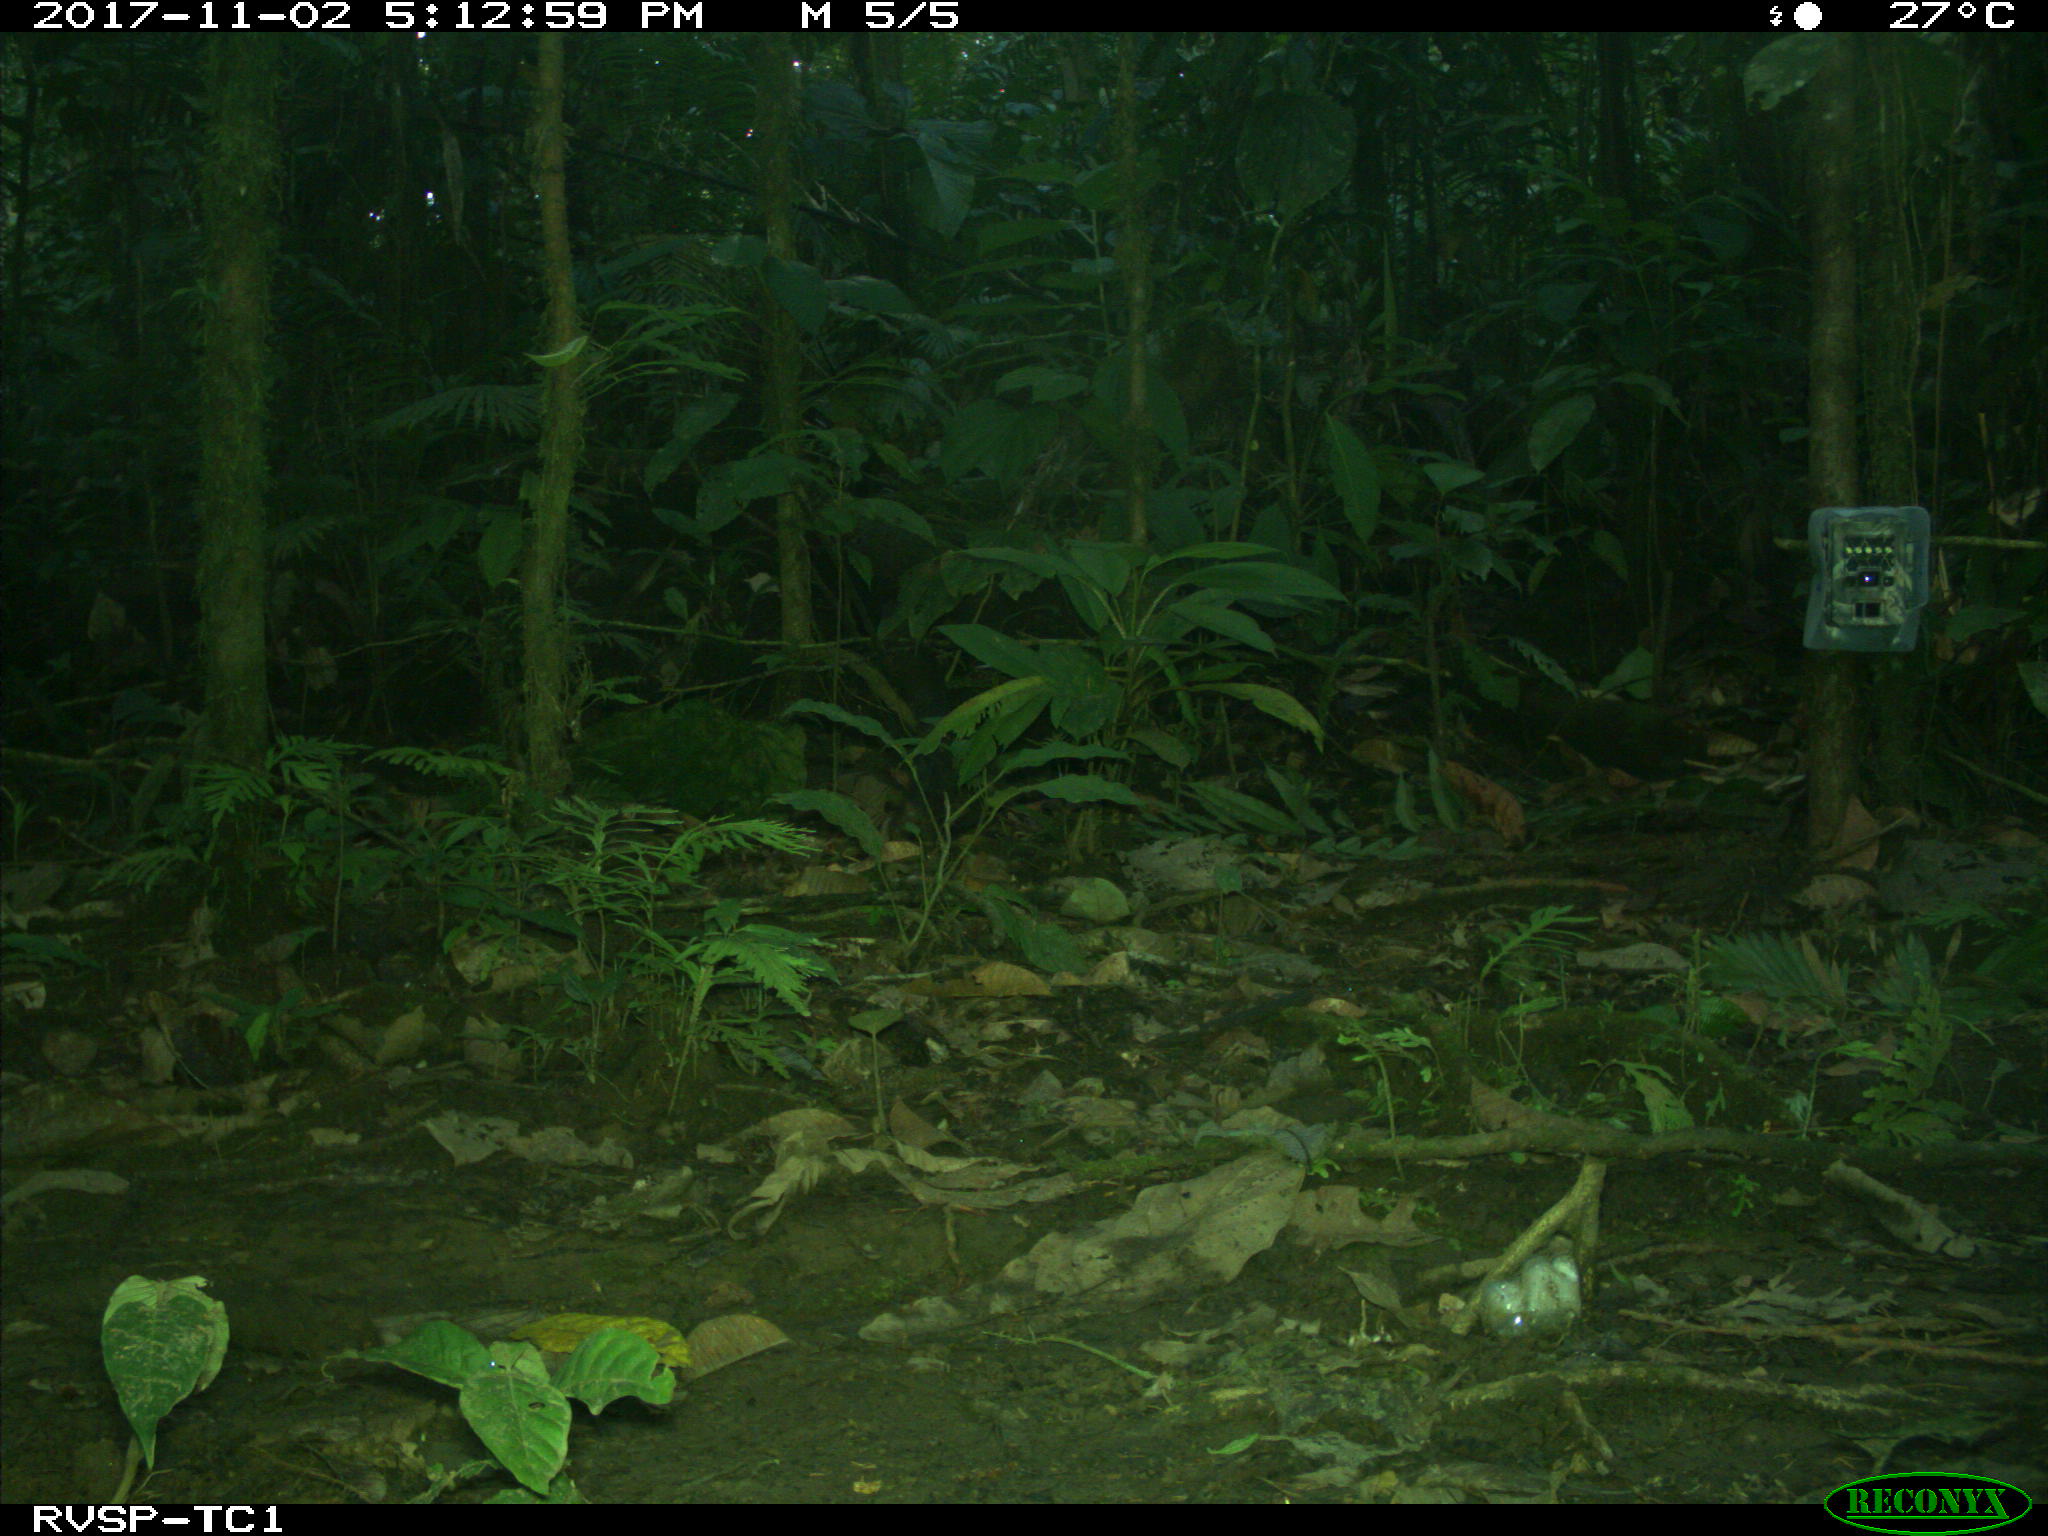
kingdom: Animalia
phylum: Chordata
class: Mammalia
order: Rodentia
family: Dasyproctidae
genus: Dasyprocta
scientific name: Dasyprocta punctata
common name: Central american agouti
